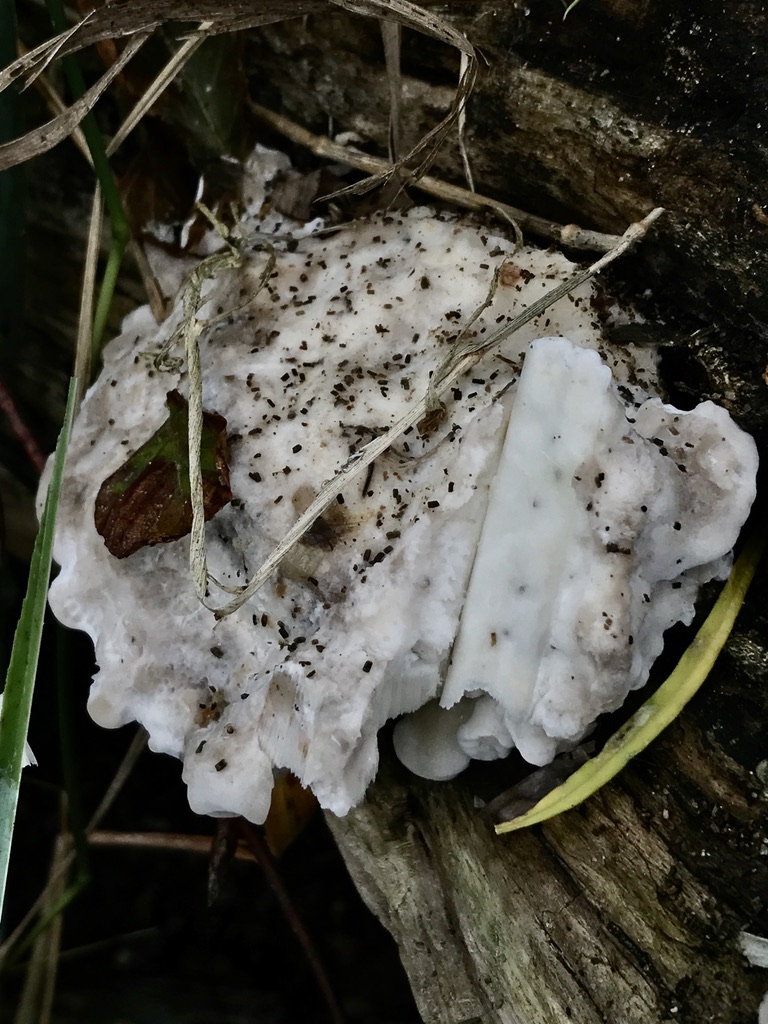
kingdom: Fungi
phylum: Basidiomycota
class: Agaricomycetes
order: Polyporales
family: Incrustoporiaceae
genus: Tyromyces
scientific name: Tyromyces lacteus
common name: mælkehvid kødporesvamp
